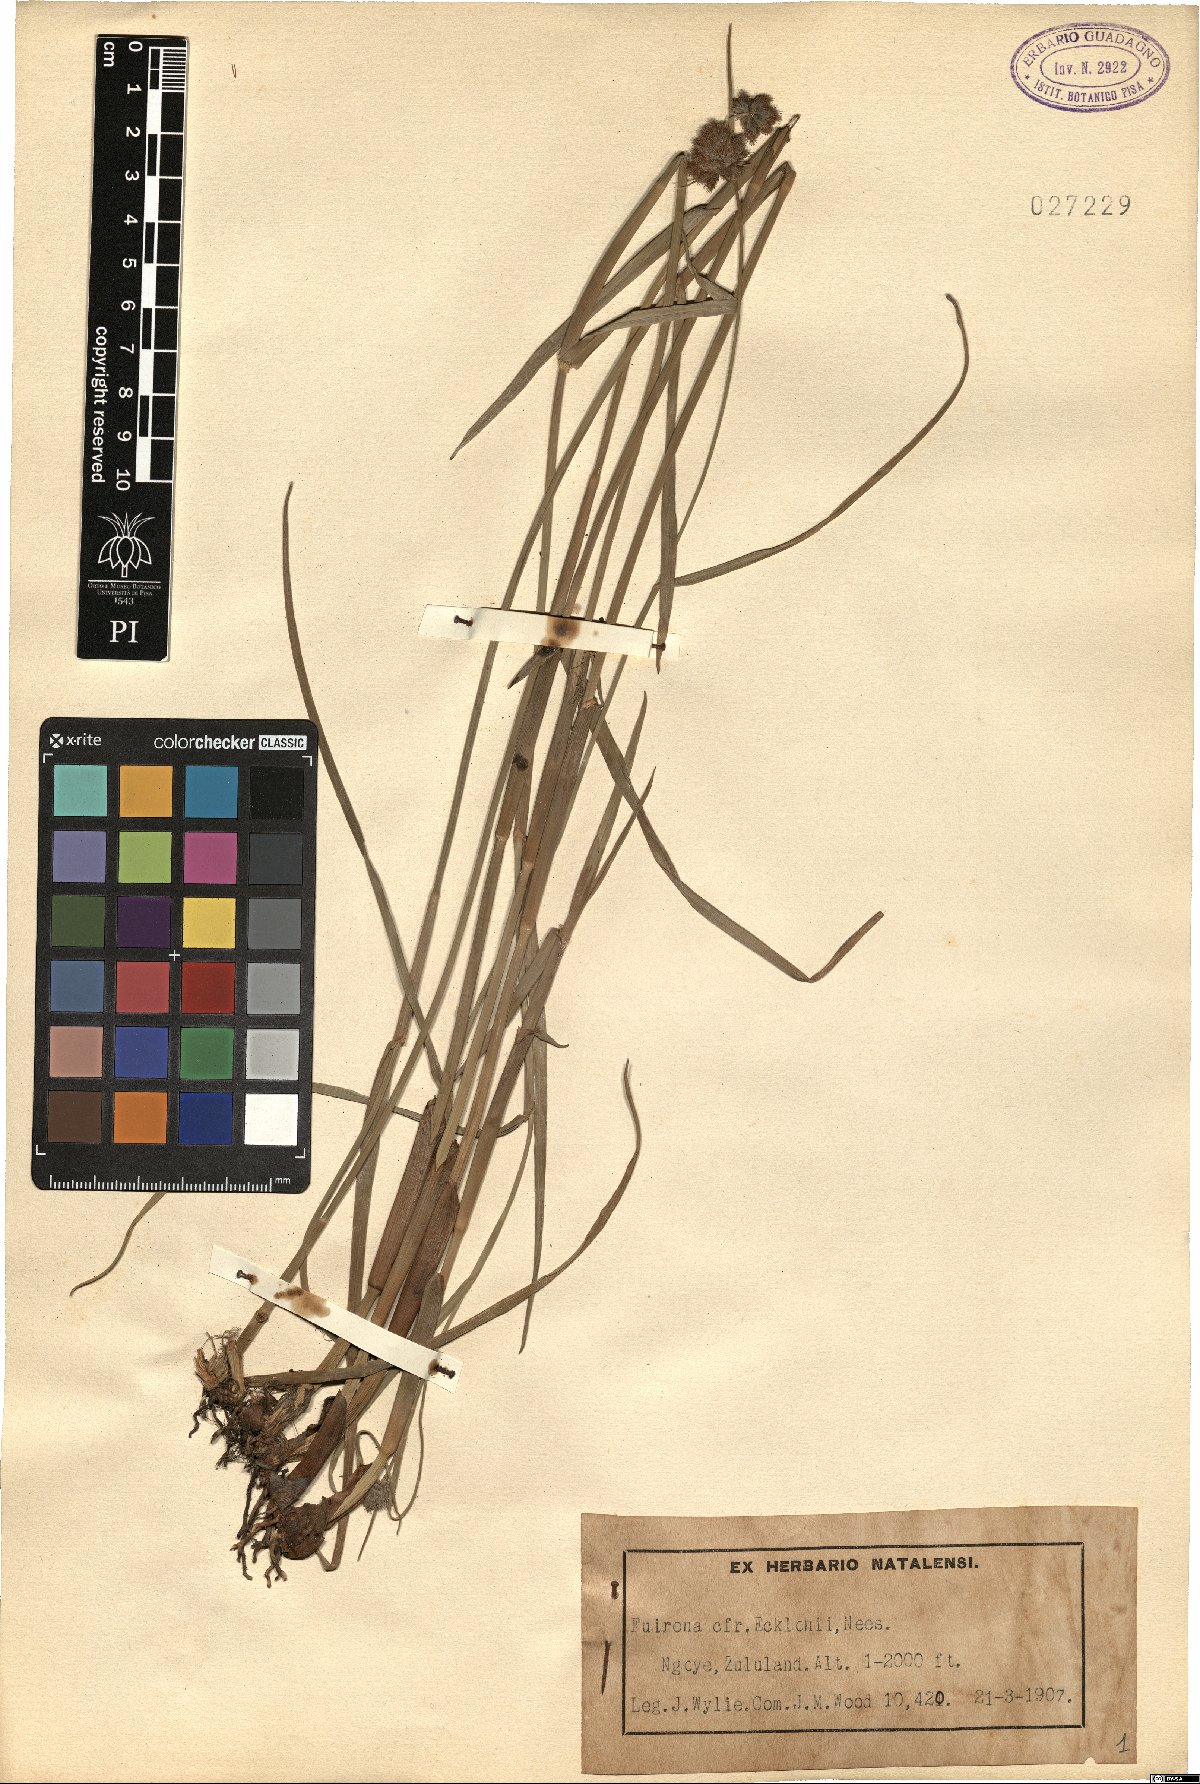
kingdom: Plantae
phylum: Tracheophyta
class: Liliopsida
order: Poales
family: Cyperaceae
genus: Fuirena
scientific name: Fuirena ecklonii
